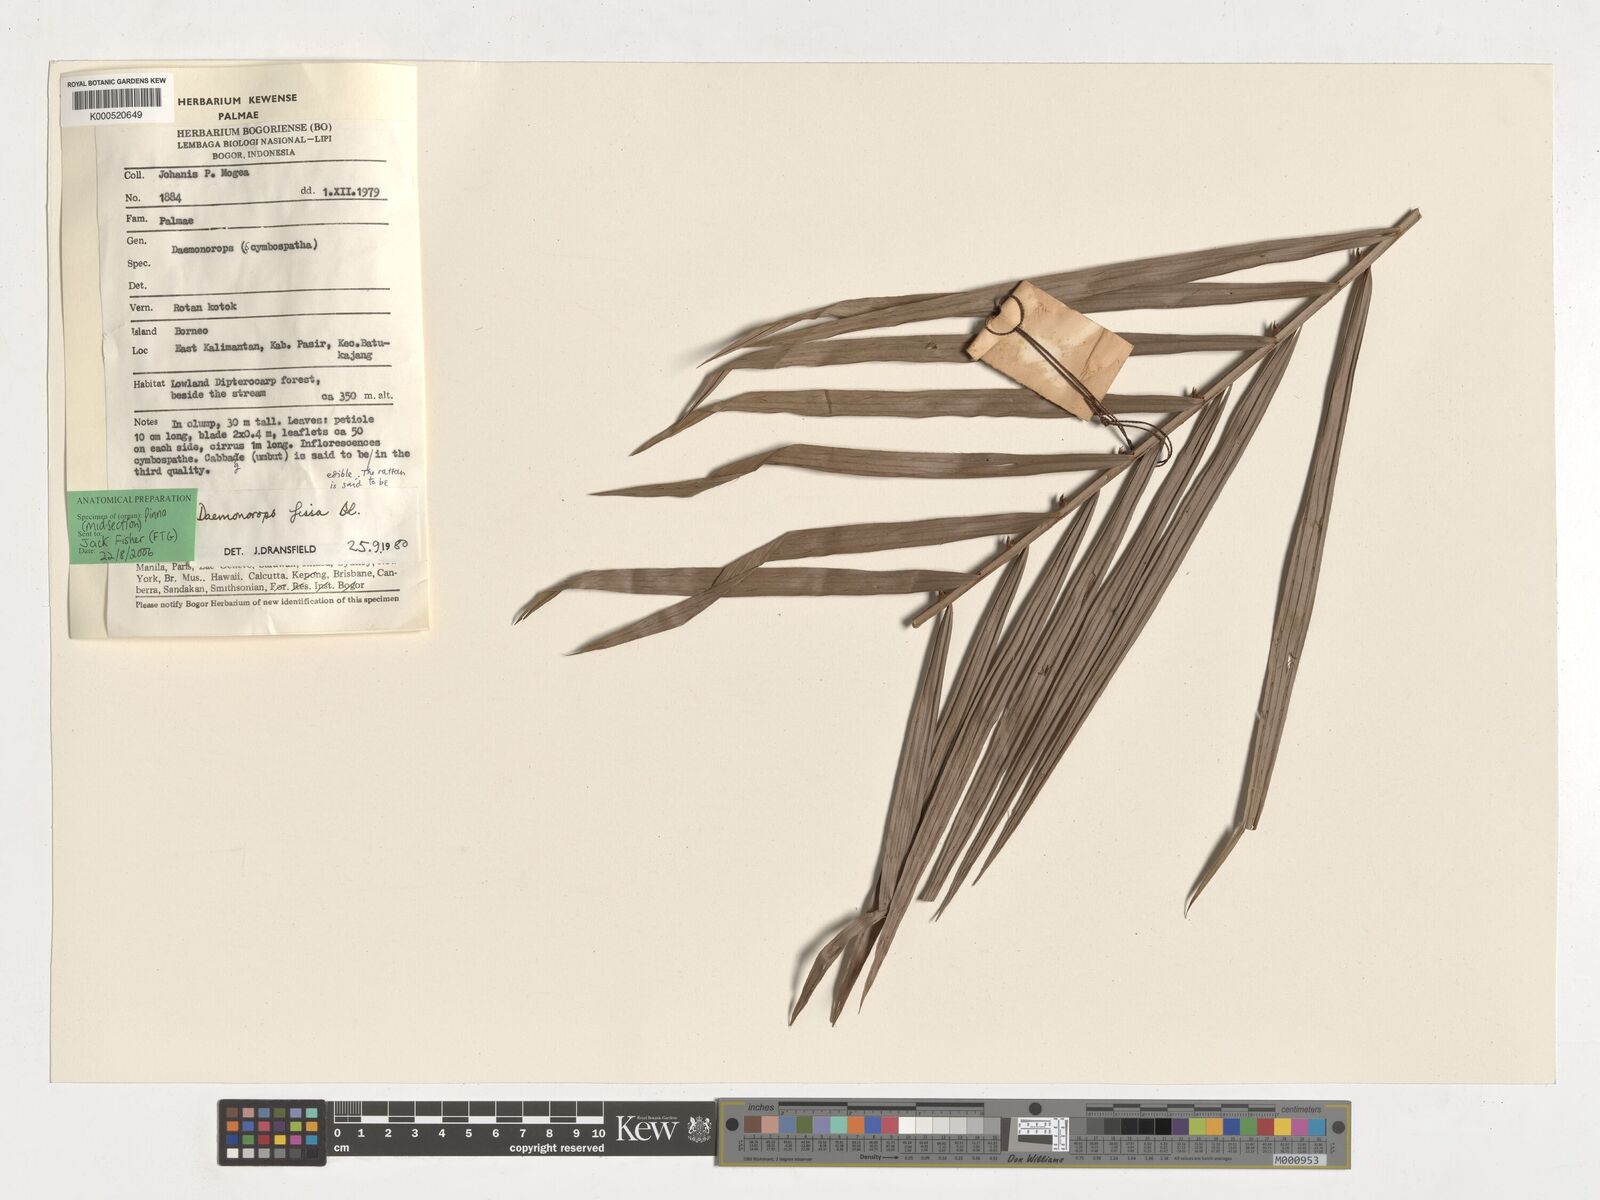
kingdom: Plantae
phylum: Tracheophyta
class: Liliopsida
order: Arecales
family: Arecaceae
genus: Calamus
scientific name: Calamus melanochaetes
